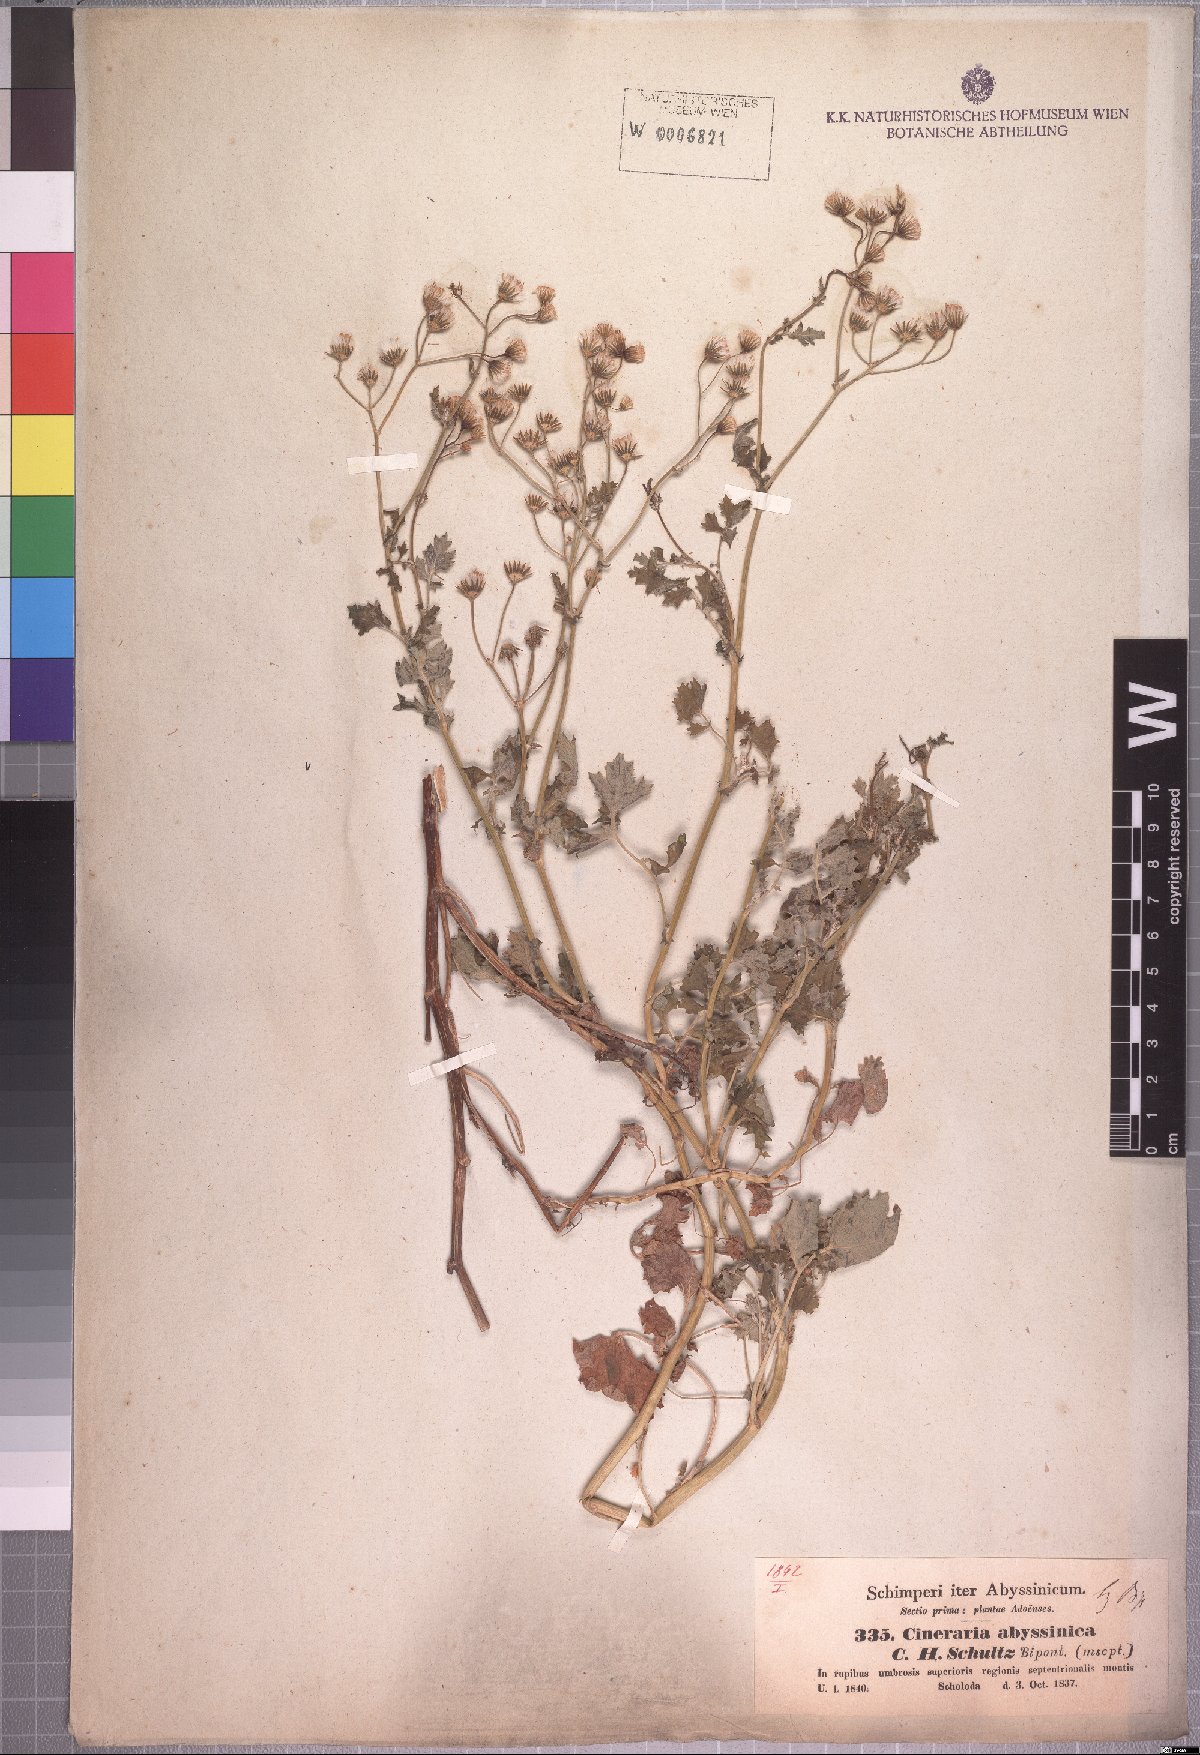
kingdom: Plantae
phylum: Tracheophyta
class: Magnoliopsida
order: Asterales
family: Asteraceae
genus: Cineraria
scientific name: Cineraria abyssinica
